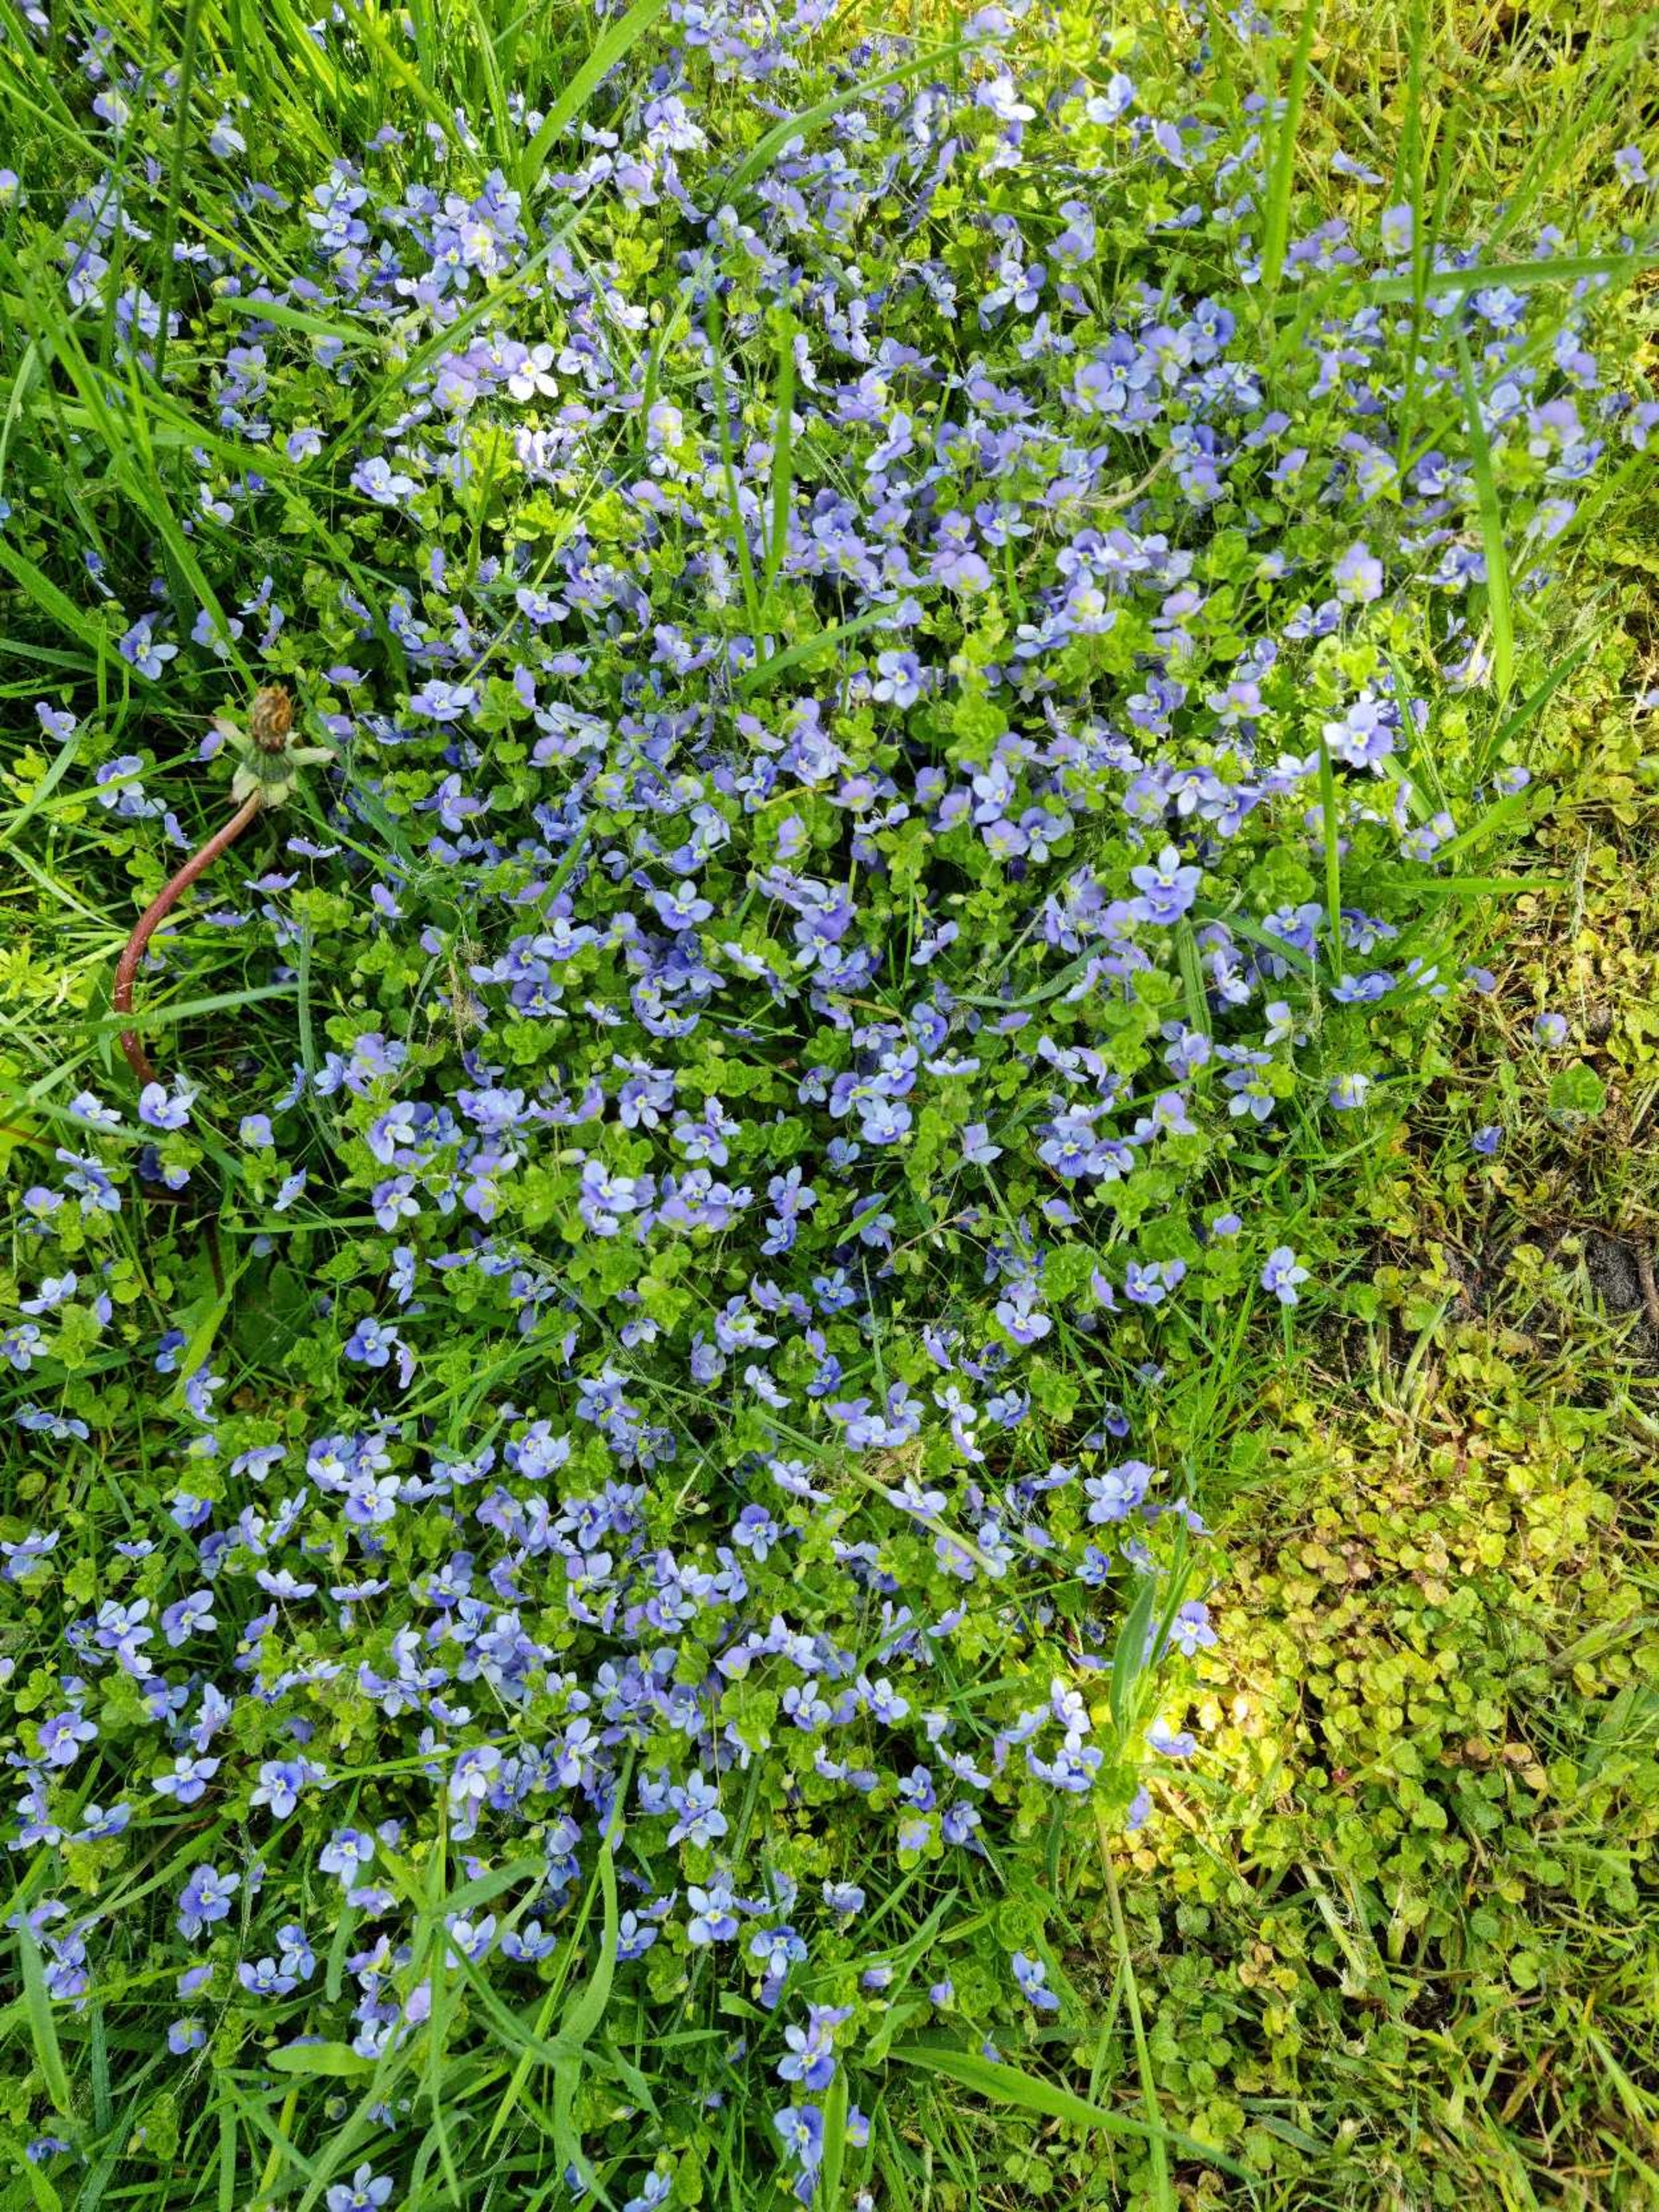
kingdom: Plantae
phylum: Tracheophyta
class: Magnoliopsida
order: Lamiales
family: Plantaginaceae
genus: Veronica
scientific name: Veronica filiformis
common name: Tråd-ærenpris
